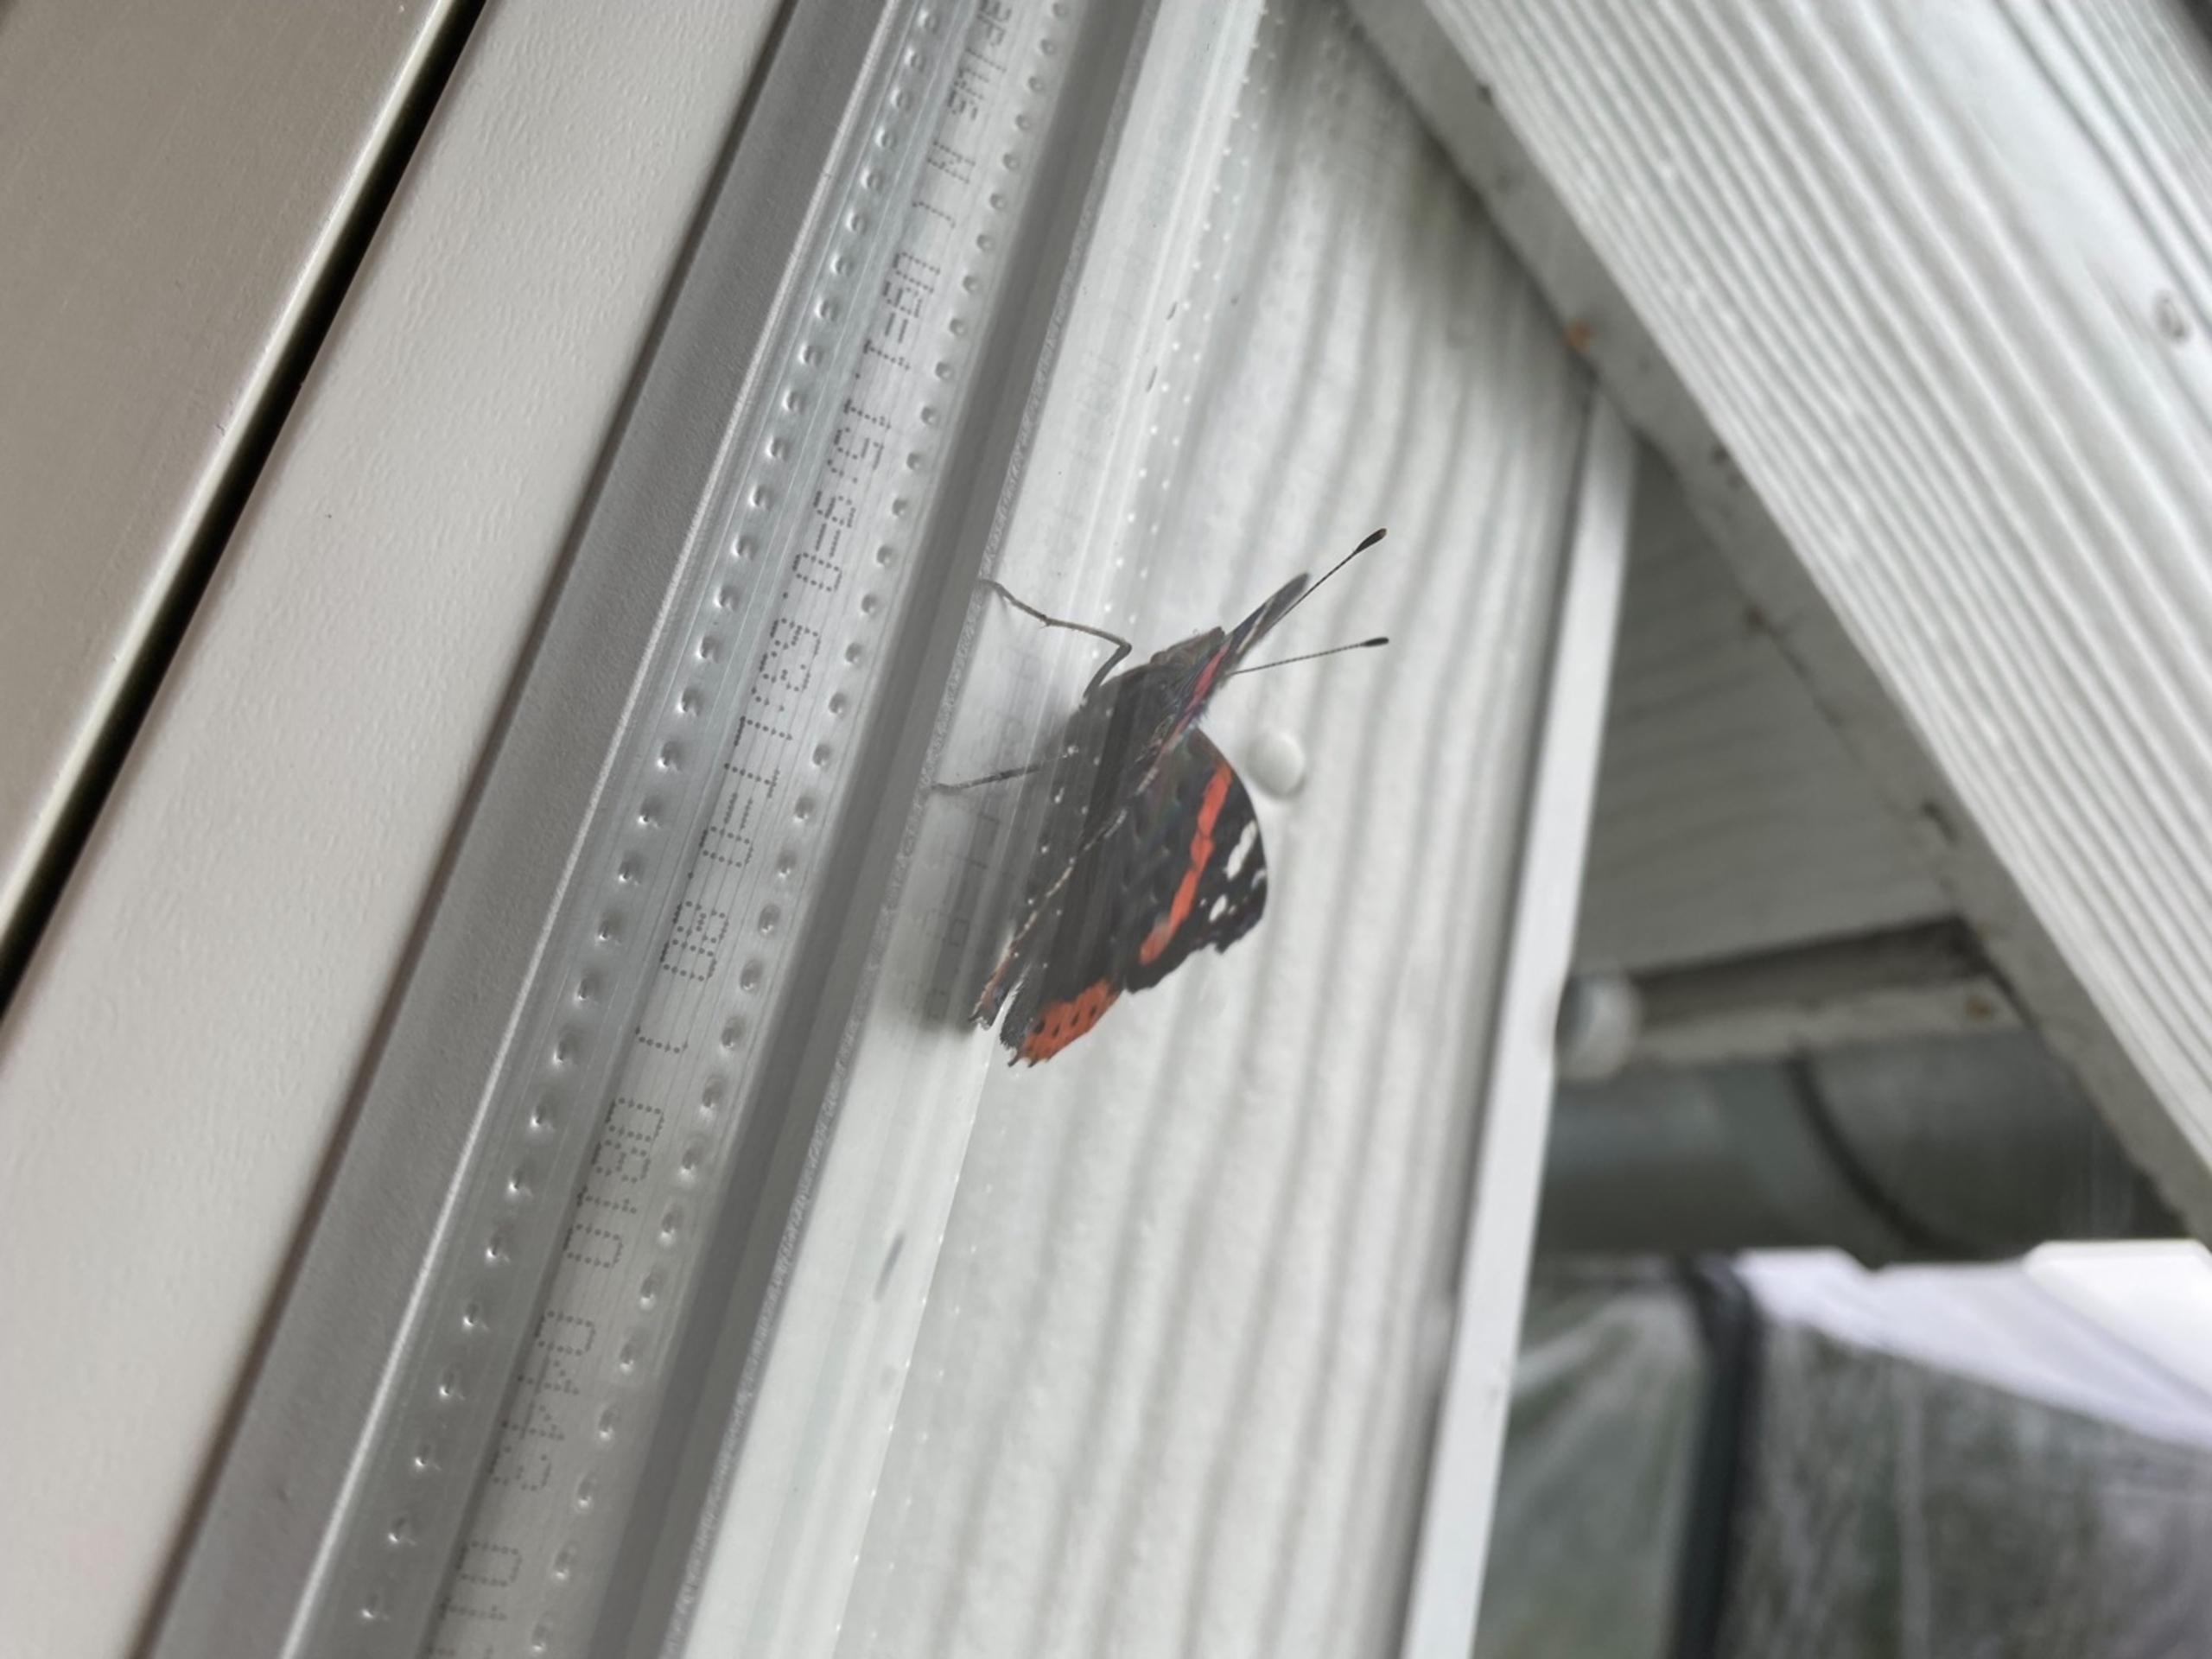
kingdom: Animalia
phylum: Arthropoda
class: Insecta
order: Lepidoptera
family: Nymphalidae
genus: Vanessa
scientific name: Vanessa atalanta
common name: Admiral
